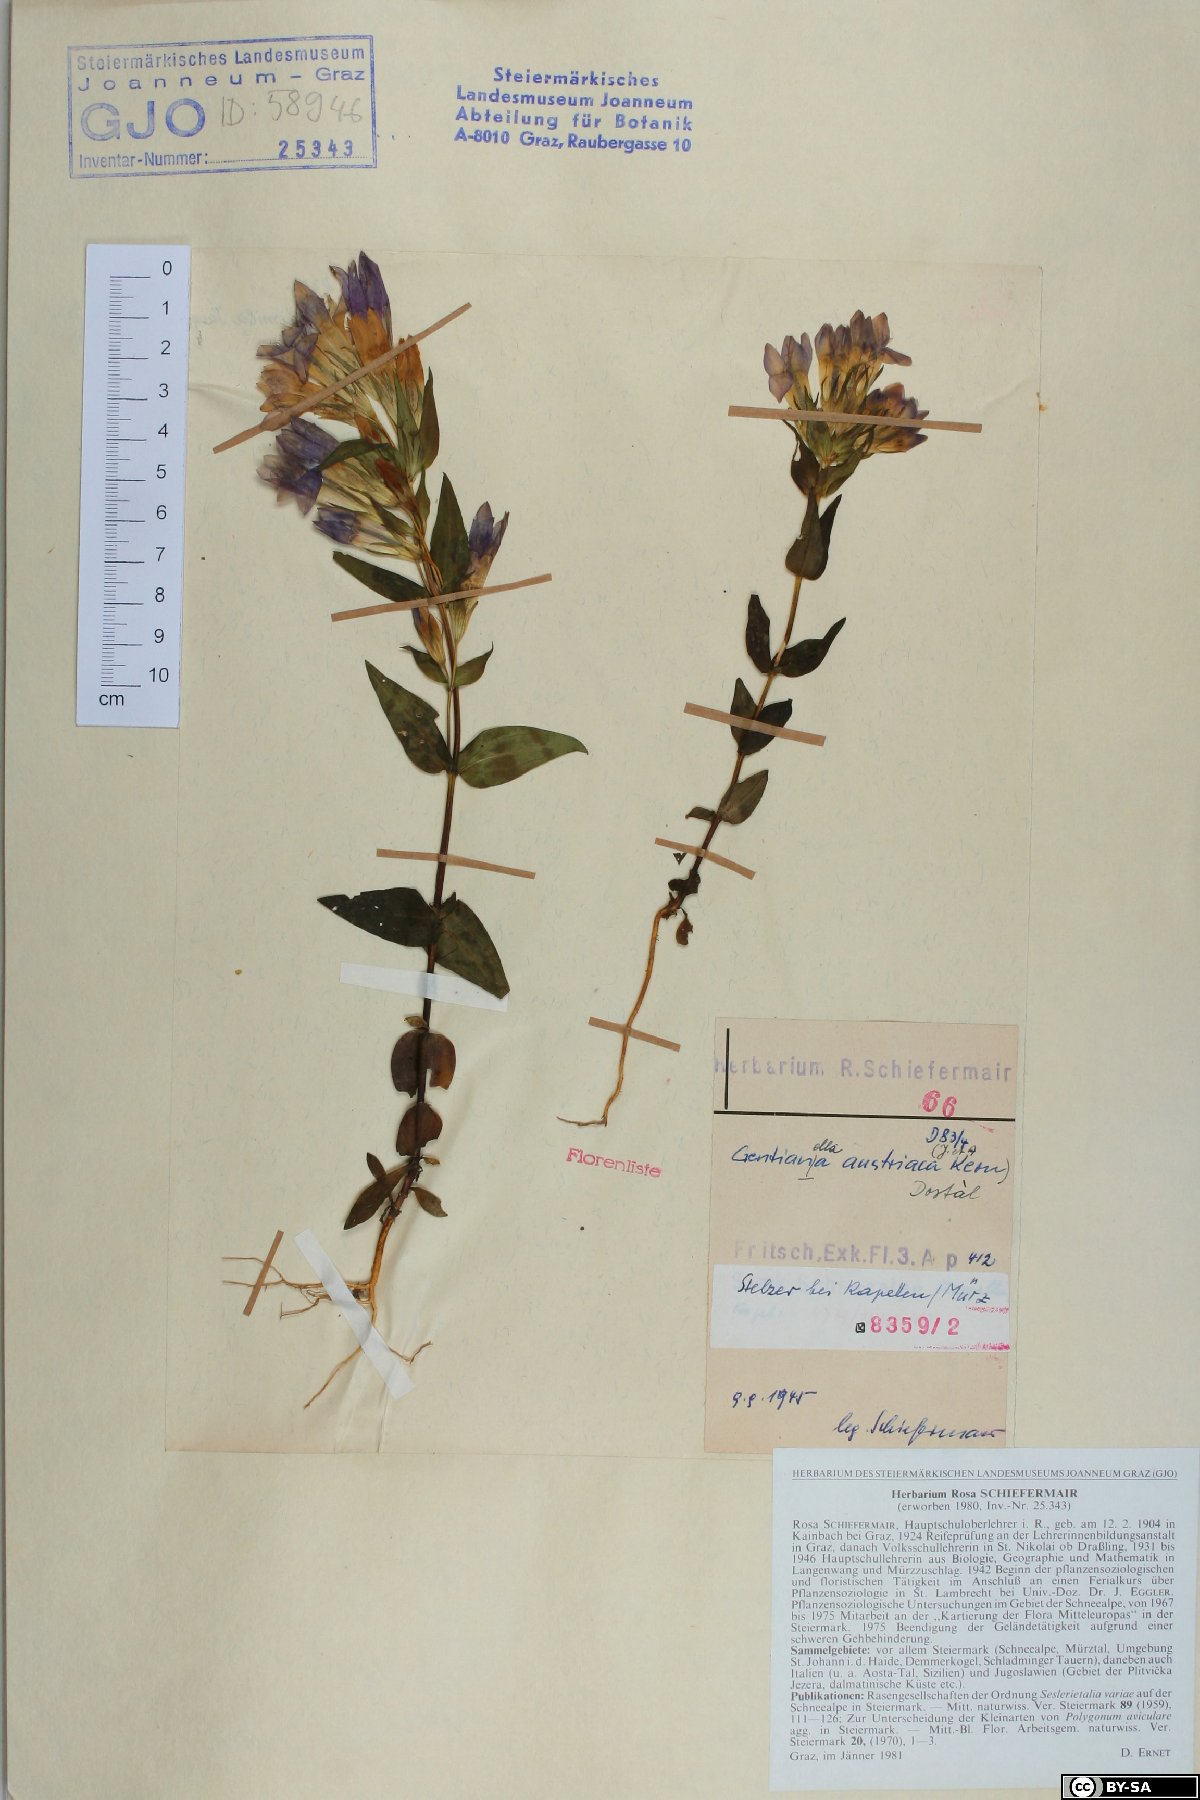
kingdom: Plantae
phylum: Tracheophyta
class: Magnoliopsida
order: Gentianales
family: Gentianaceae
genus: Gentianella
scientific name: Gentianella austriaca
